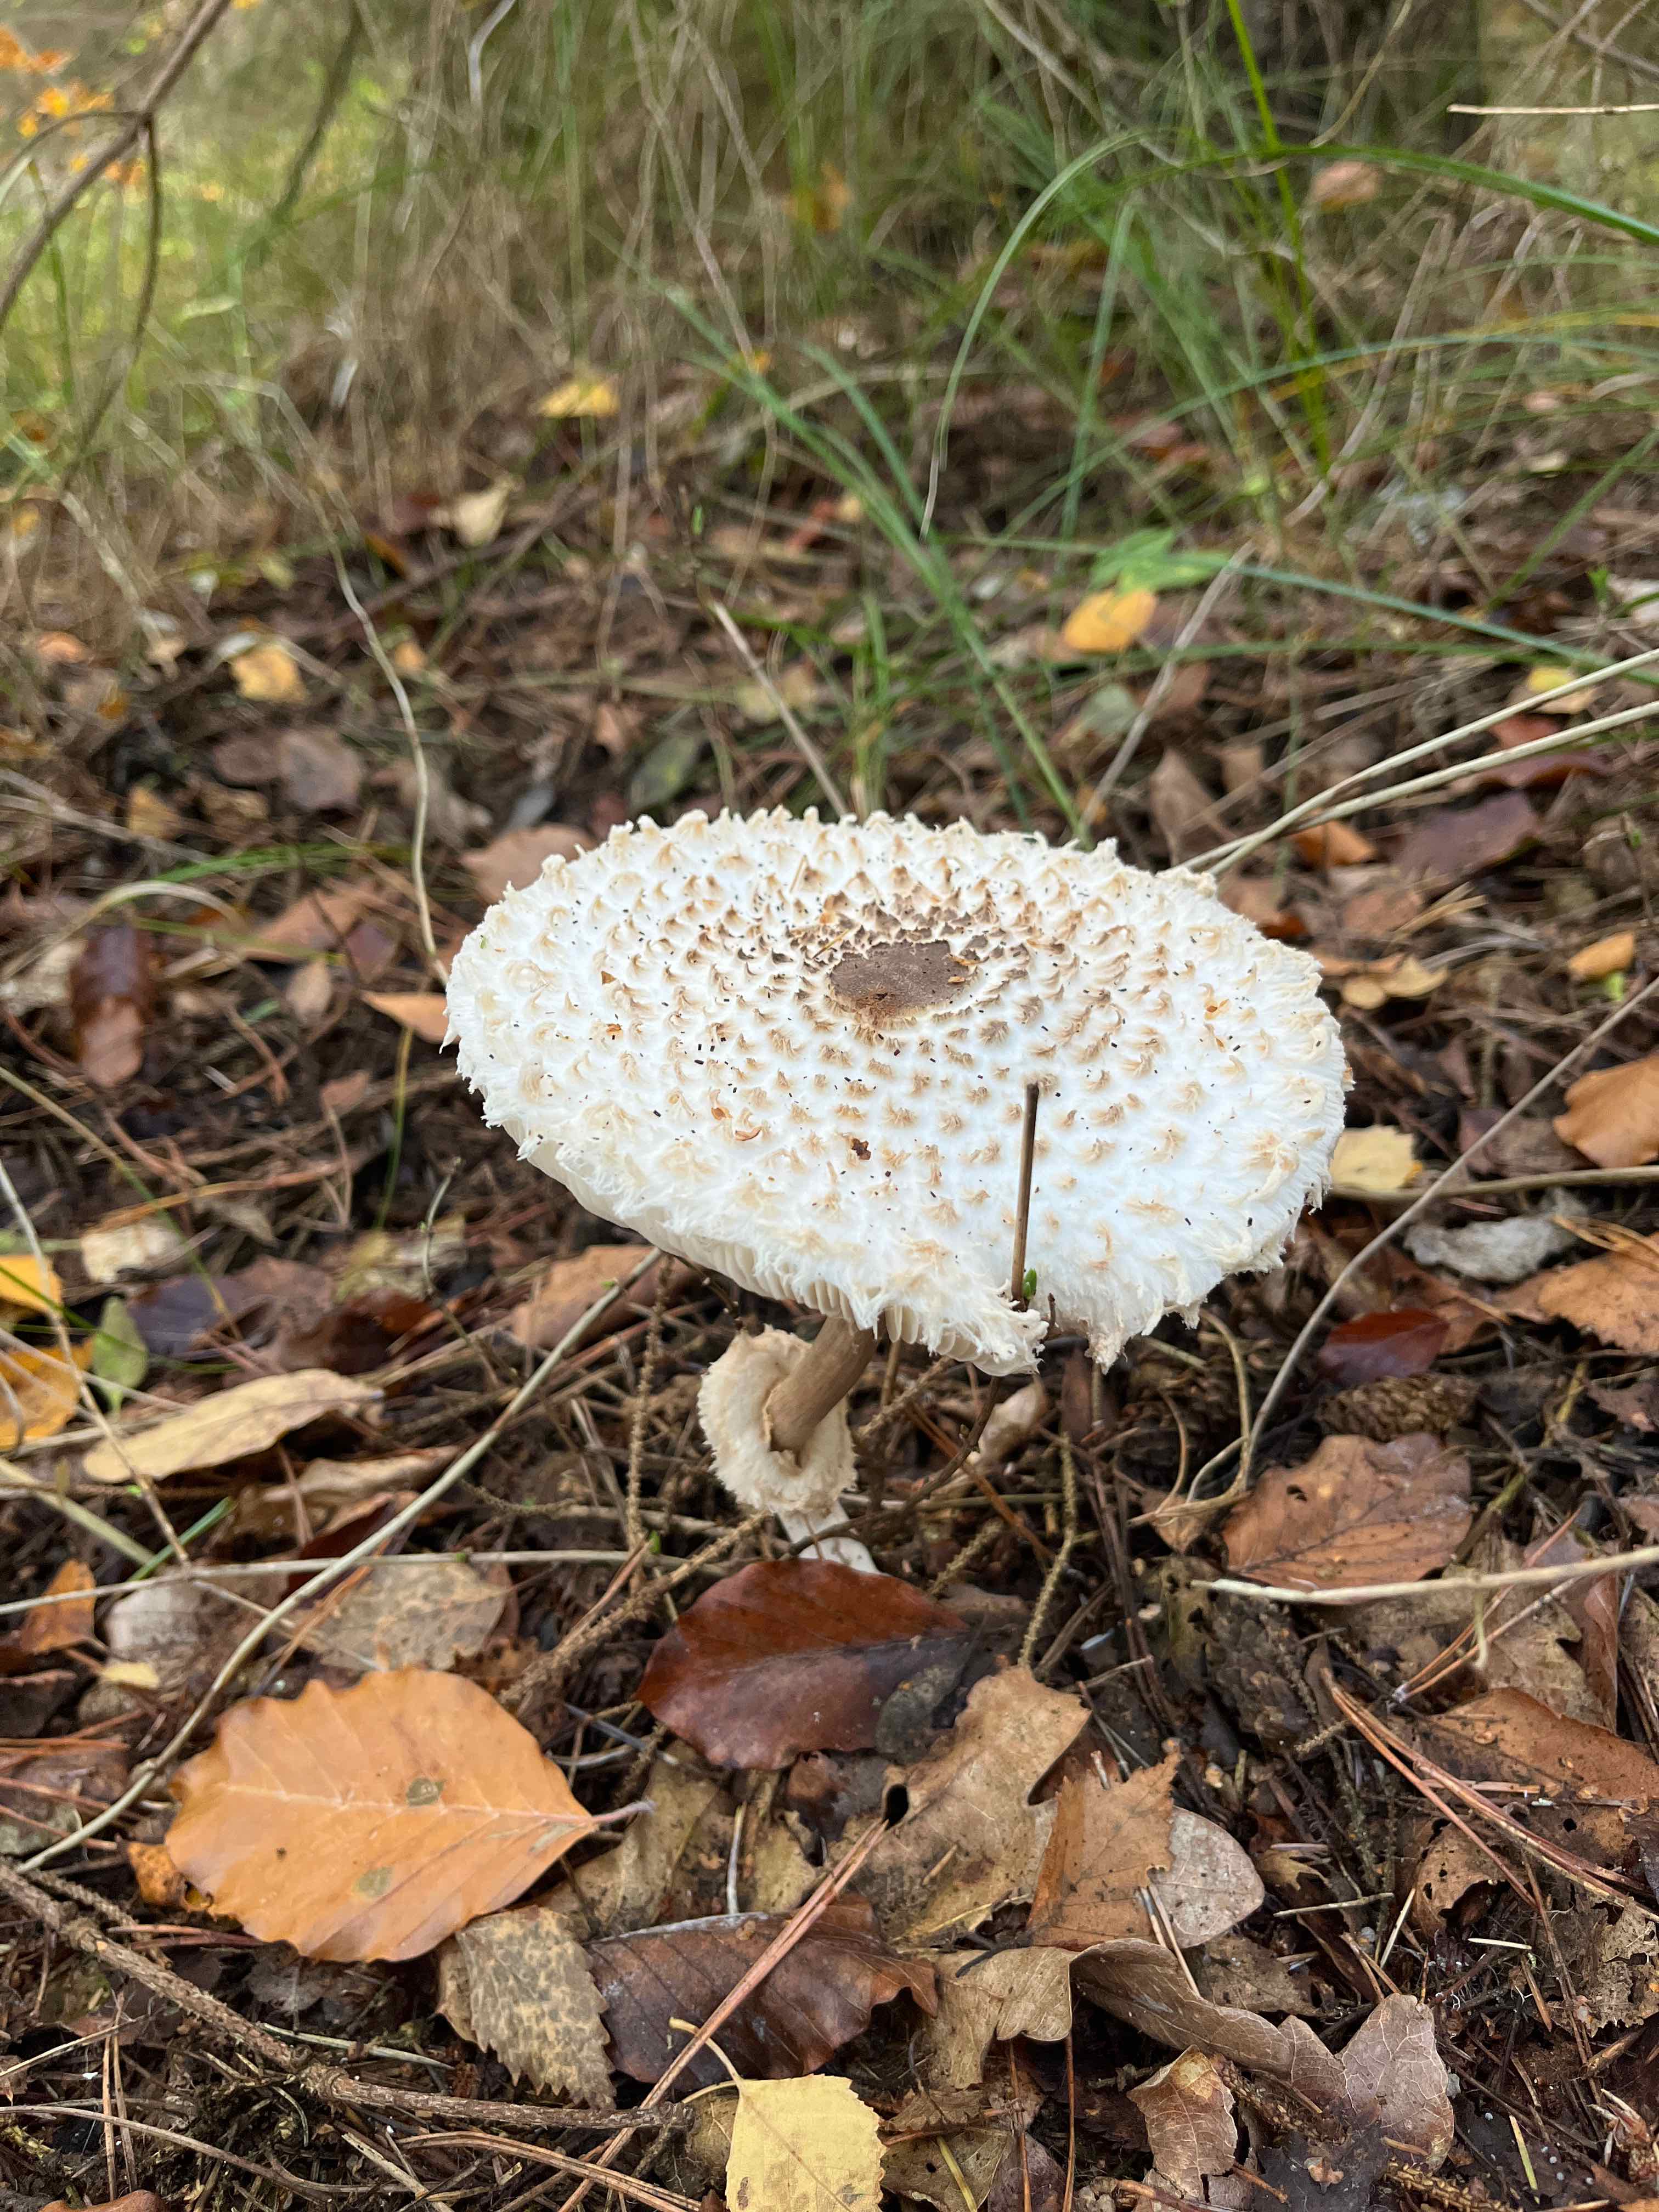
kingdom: Fungi
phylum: Basidiomycota
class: Agaricomycetes
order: Agaricales
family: Agaricaceae
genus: Leucoagaricus
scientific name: Leucoagaricus nympharum
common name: gran-silkehat
